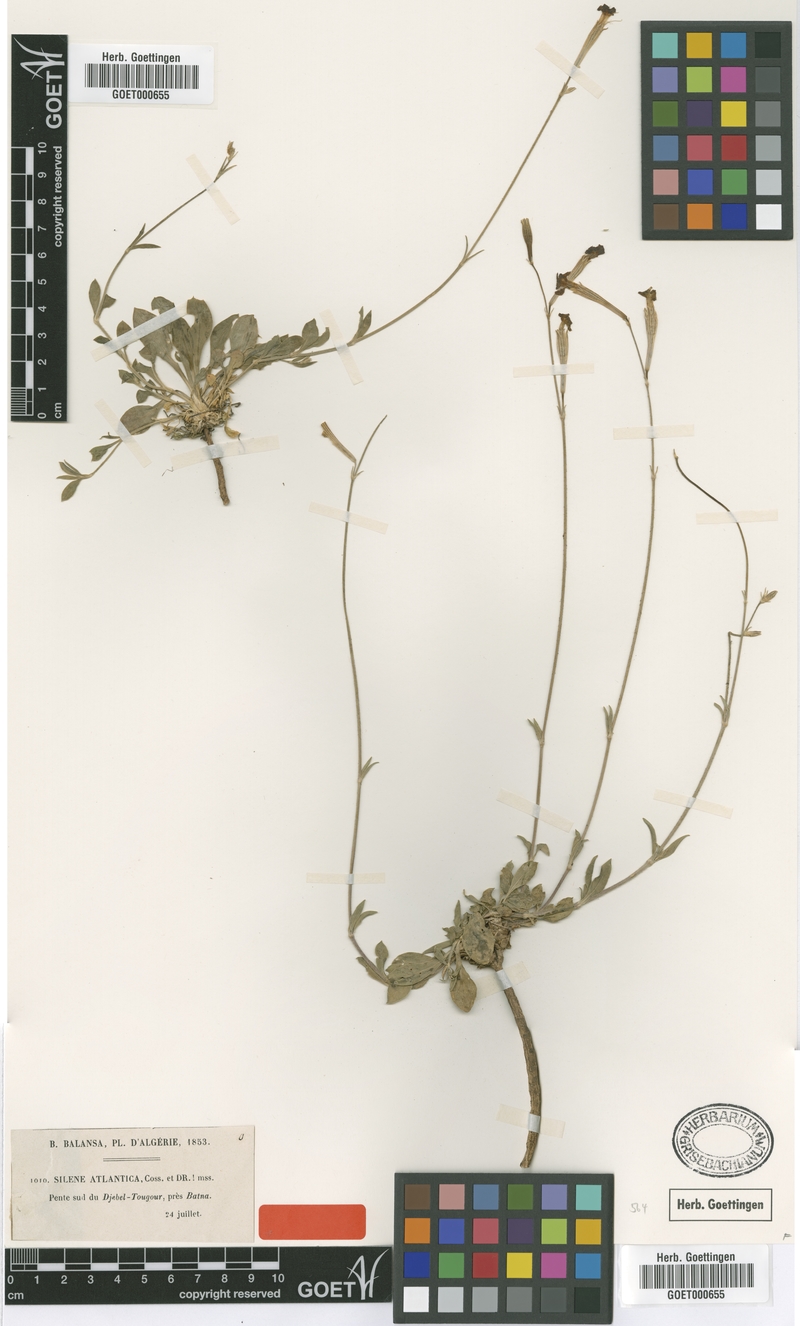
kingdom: Plantae
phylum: Tracheophyta
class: Magnoliopsida
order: Caryophyllales
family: Caryophyllaceae
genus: Silene
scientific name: Silene atlantica
